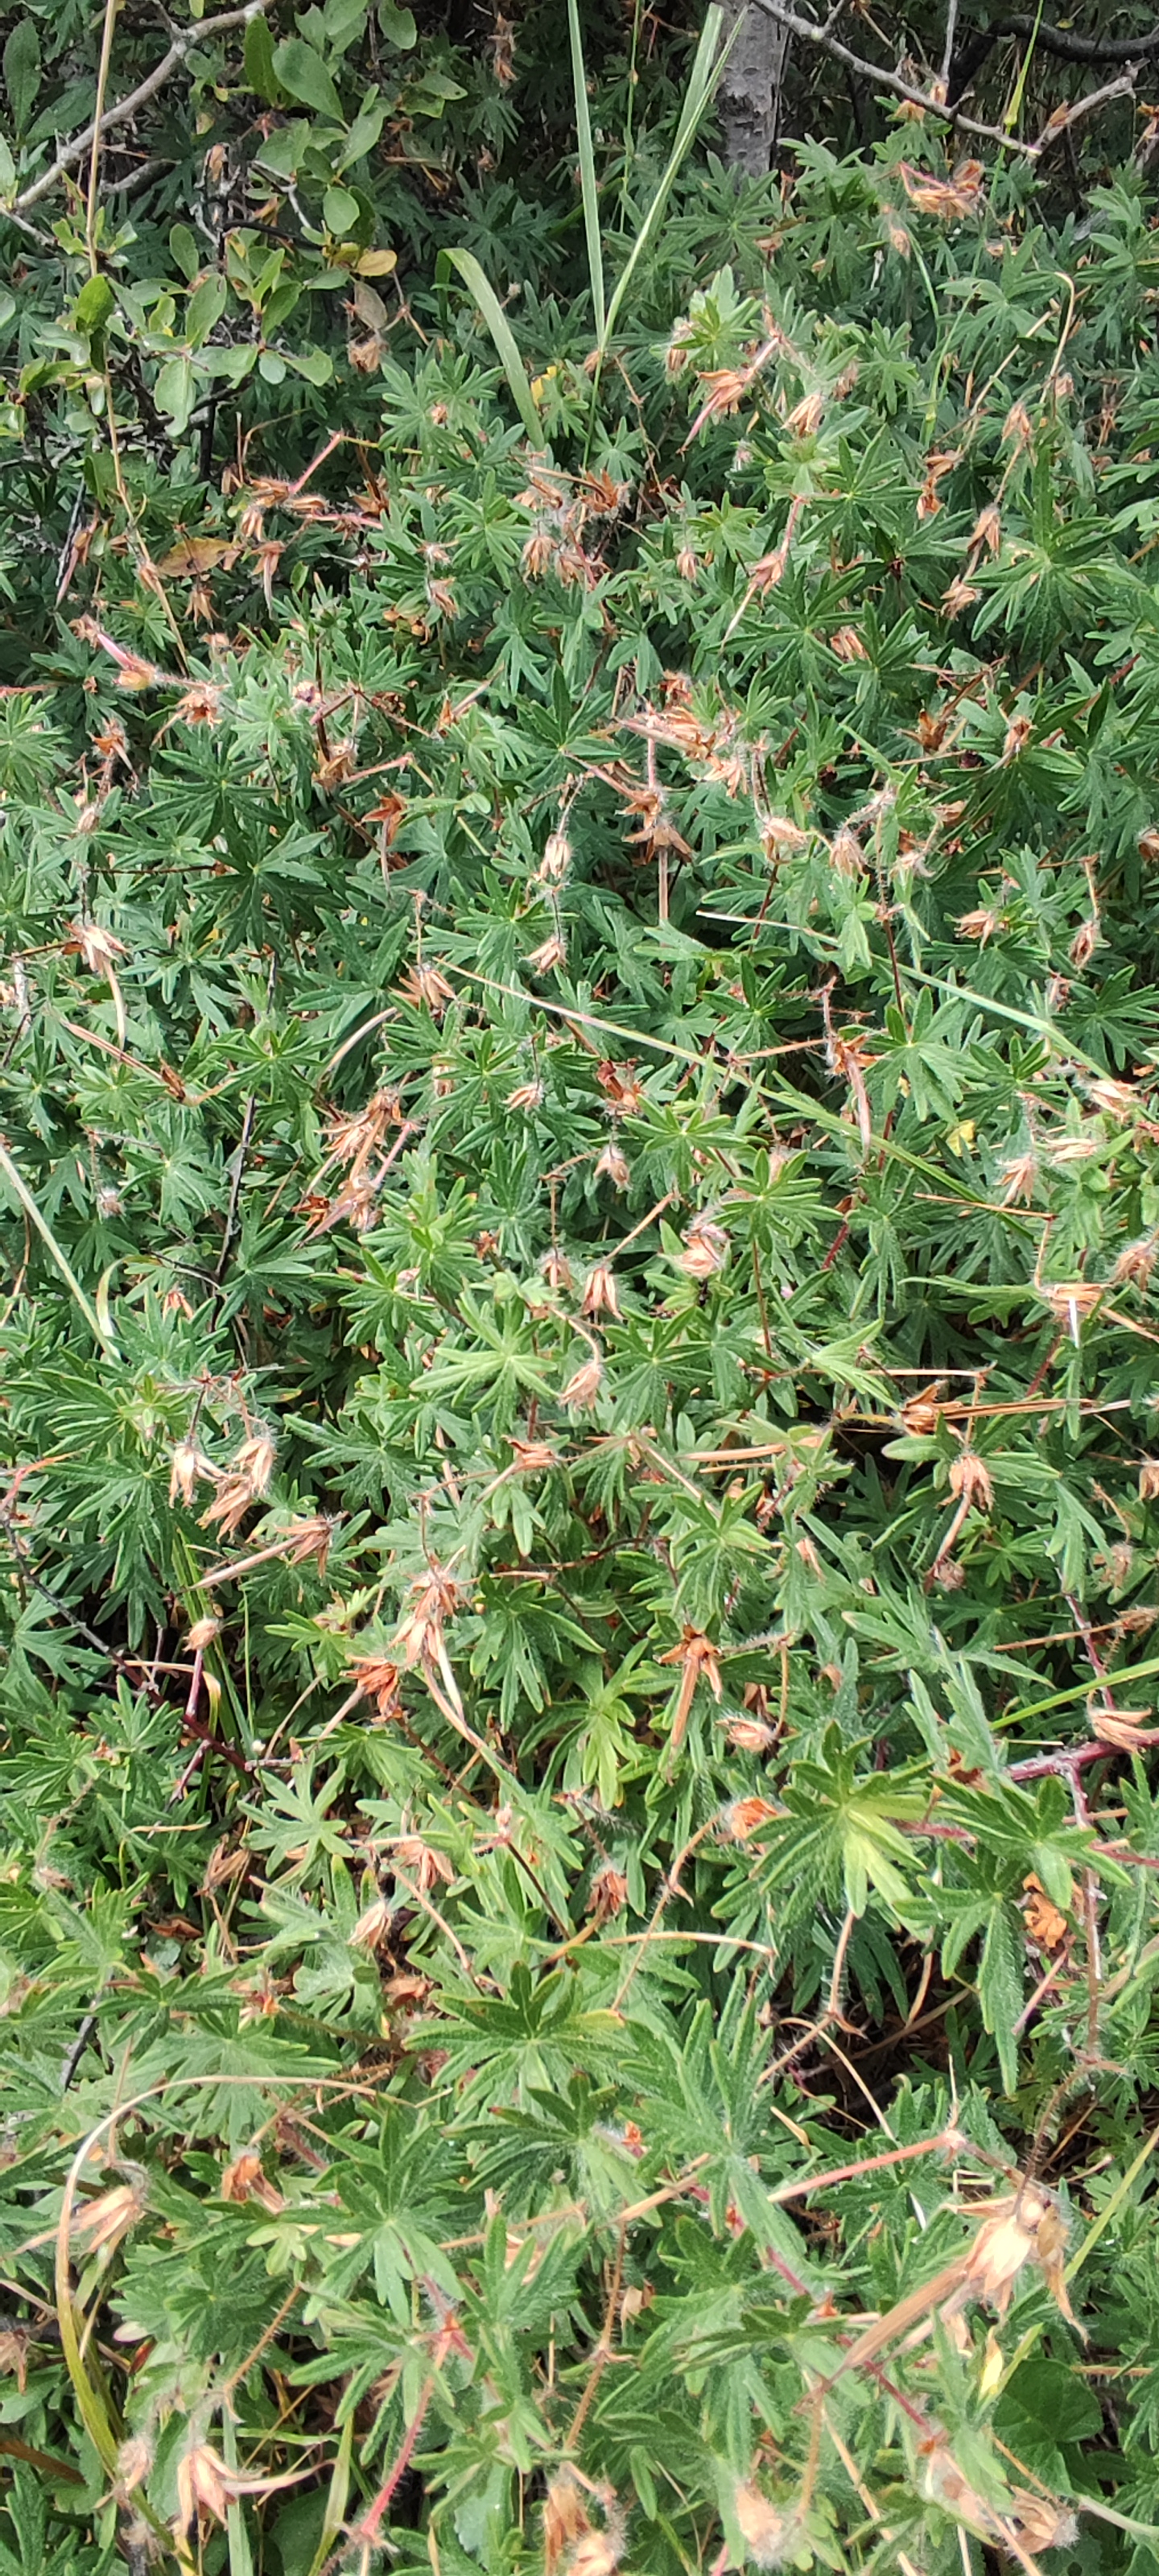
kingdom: Plantae
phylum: Tracheophyta
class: Magnoliopsida
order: Geraniales
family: Geraniaceae
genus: Geranium
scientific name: Geranium sanguineum
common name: Blodrød storkenæb
